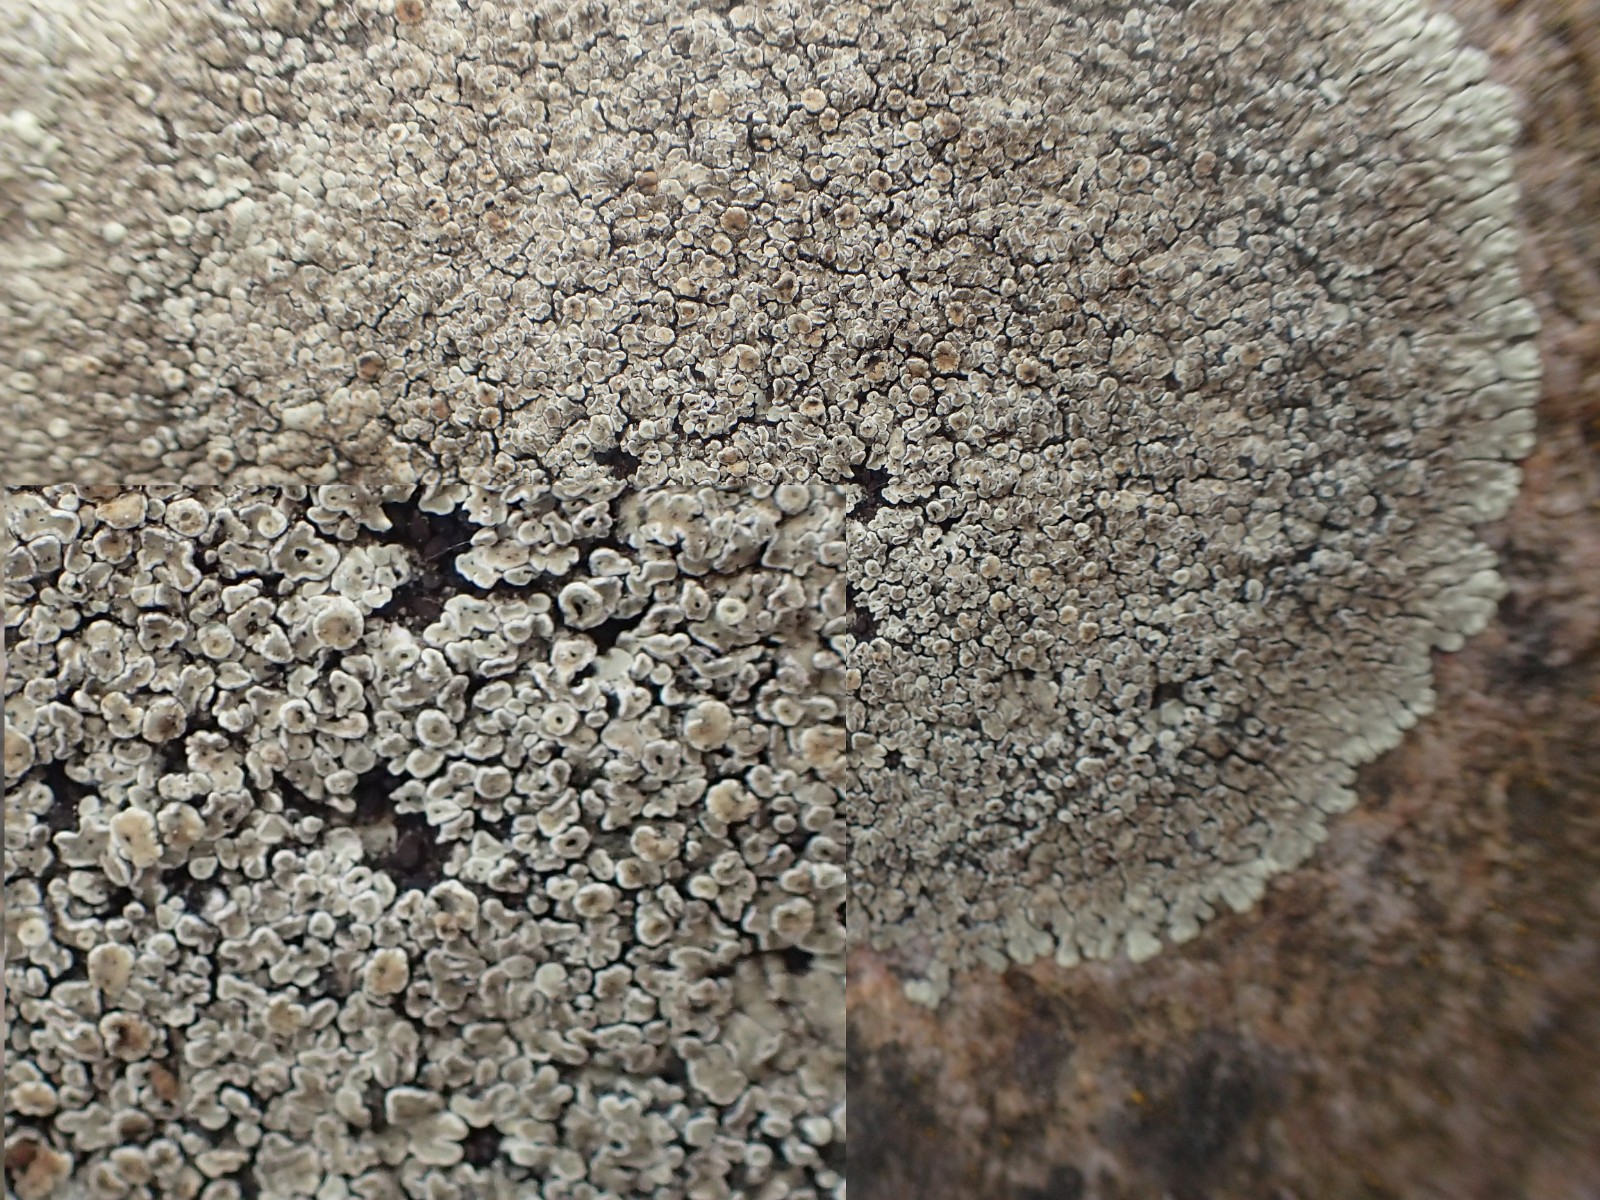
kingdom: Fungi
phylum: Ascomycota
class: Lecanoromycetes
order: Lecanorales
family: Lecanoraceae
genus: Protoparmeliopsis
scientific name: Protoparmeliopsis muralis
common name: randfliget kantskivelav
